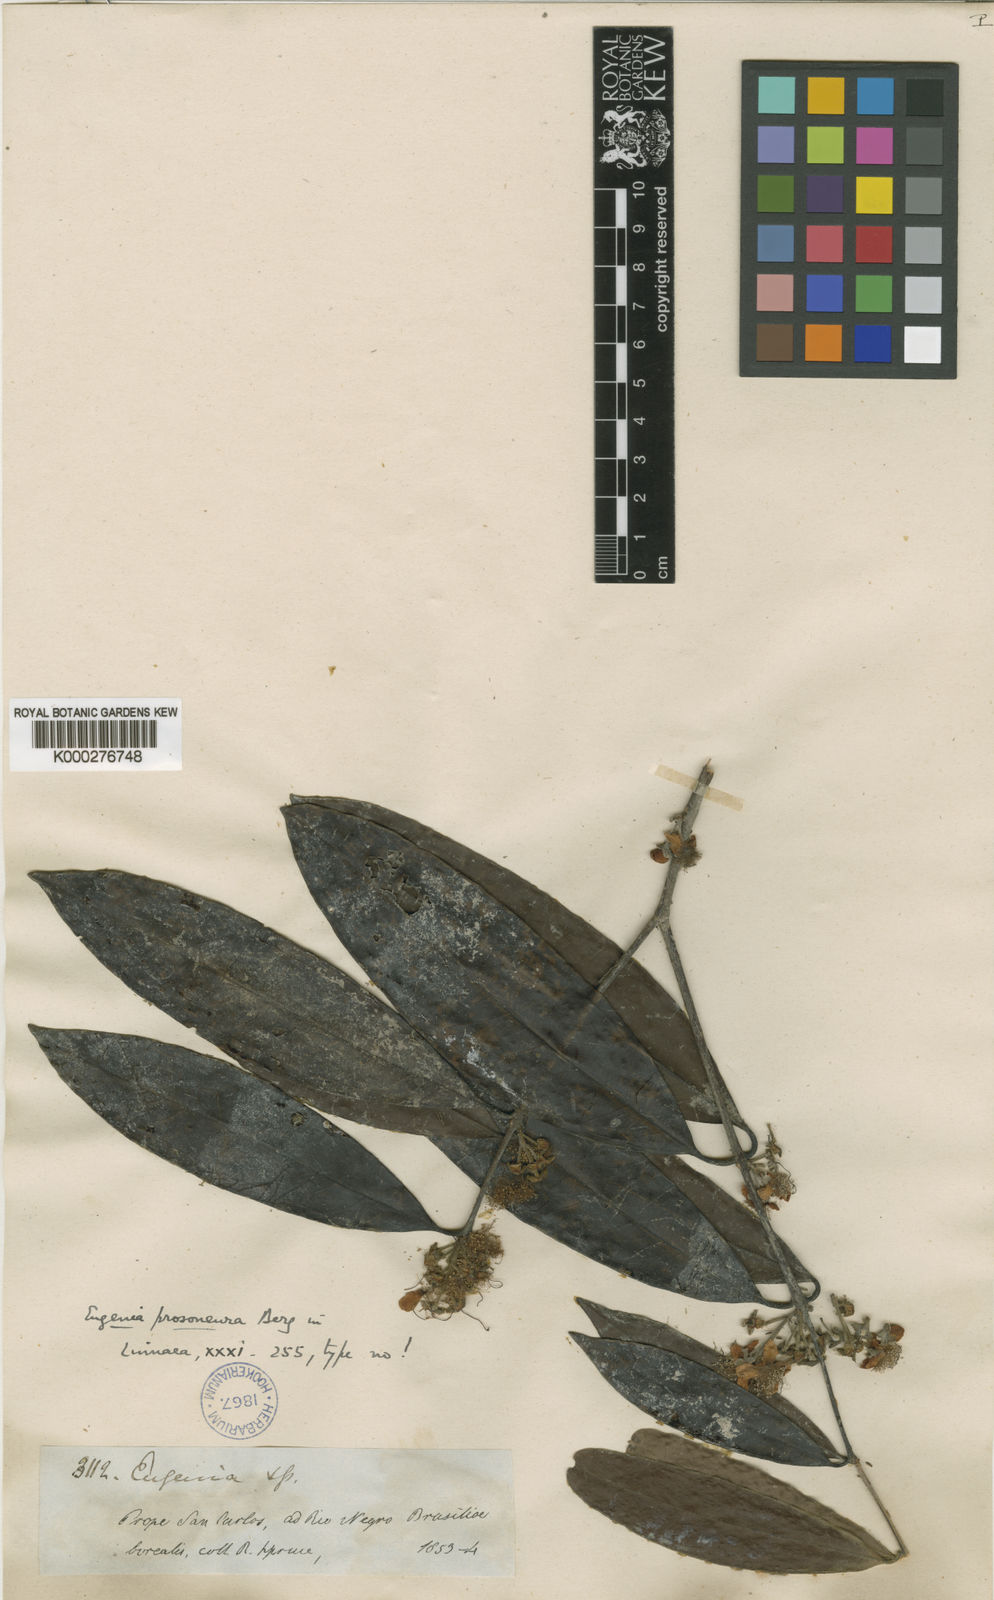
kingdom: Plantae
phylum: Tracheophyta
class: Magnoliopsida
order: Myrtales
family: Myrtaceae
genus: Eugenia
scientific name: Eugenia gomesiana
